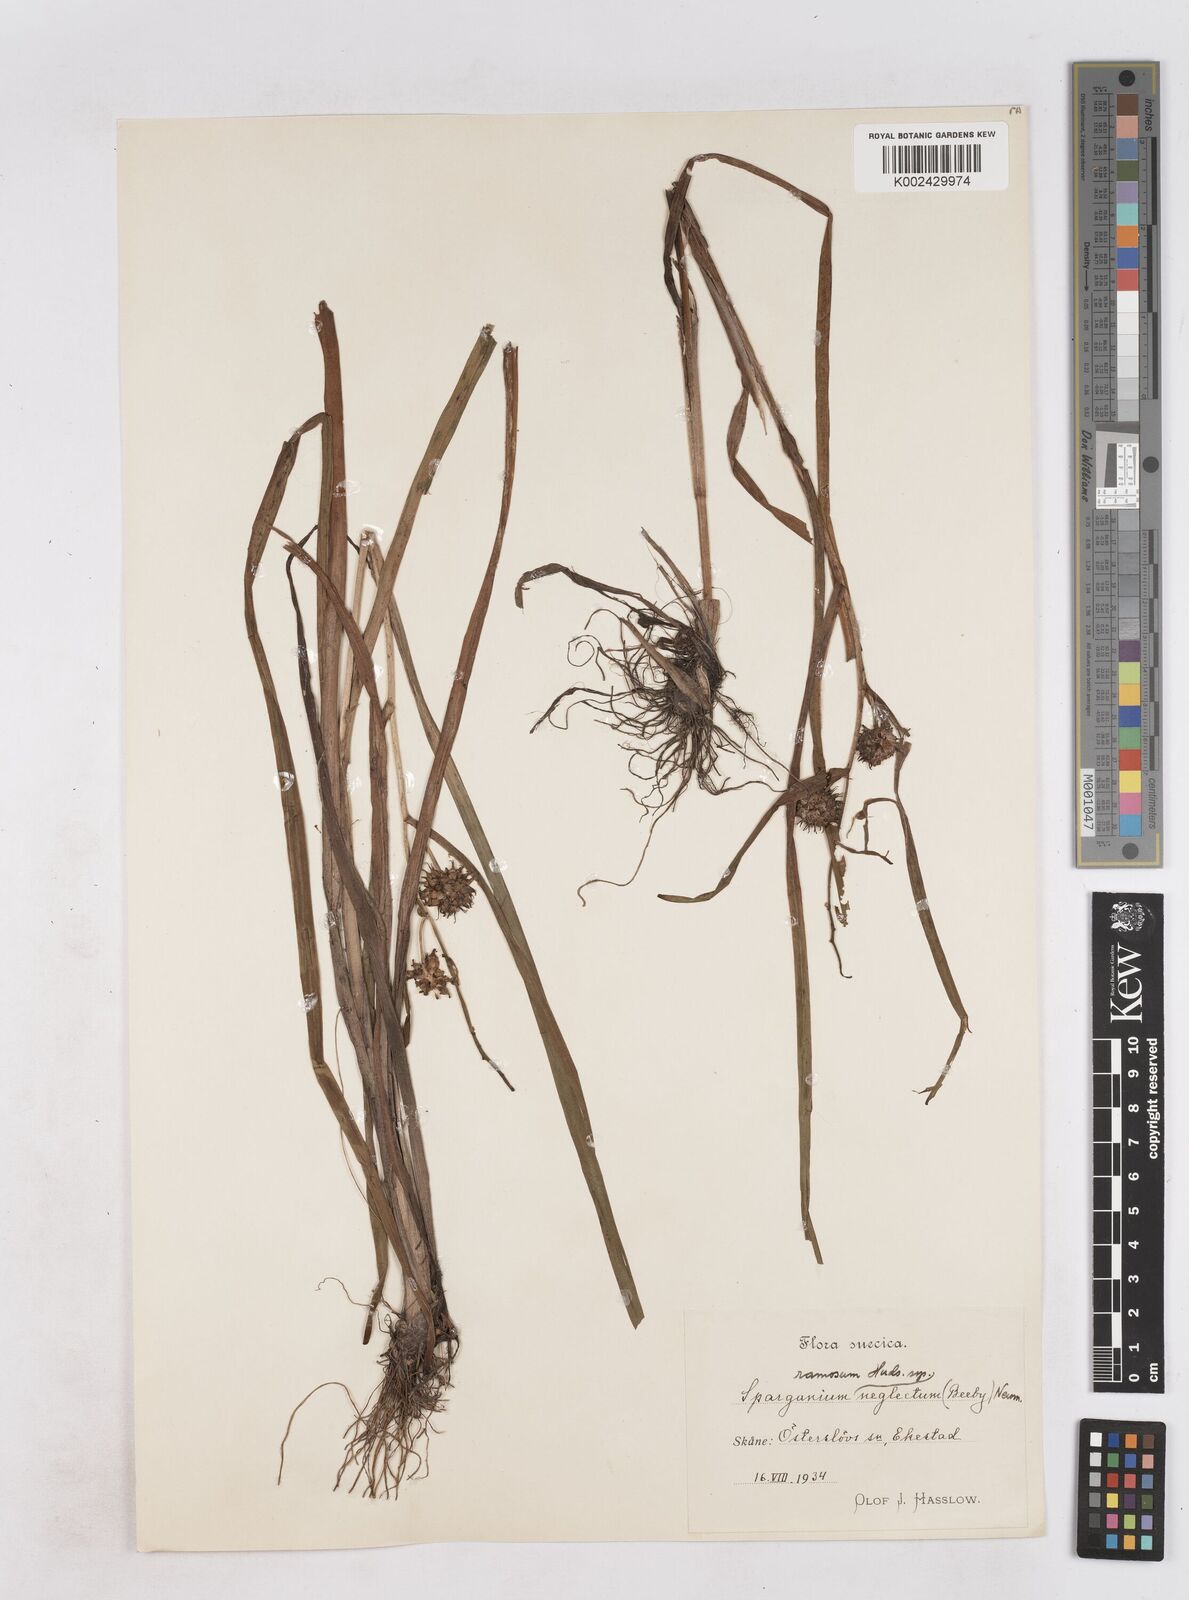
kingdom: Plantae
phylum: Tracheophyta
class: Liliopsida
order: Poales
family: Typhaceae
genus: Sparganium
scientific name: Sparganium erectum
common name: Branched bur-reed
